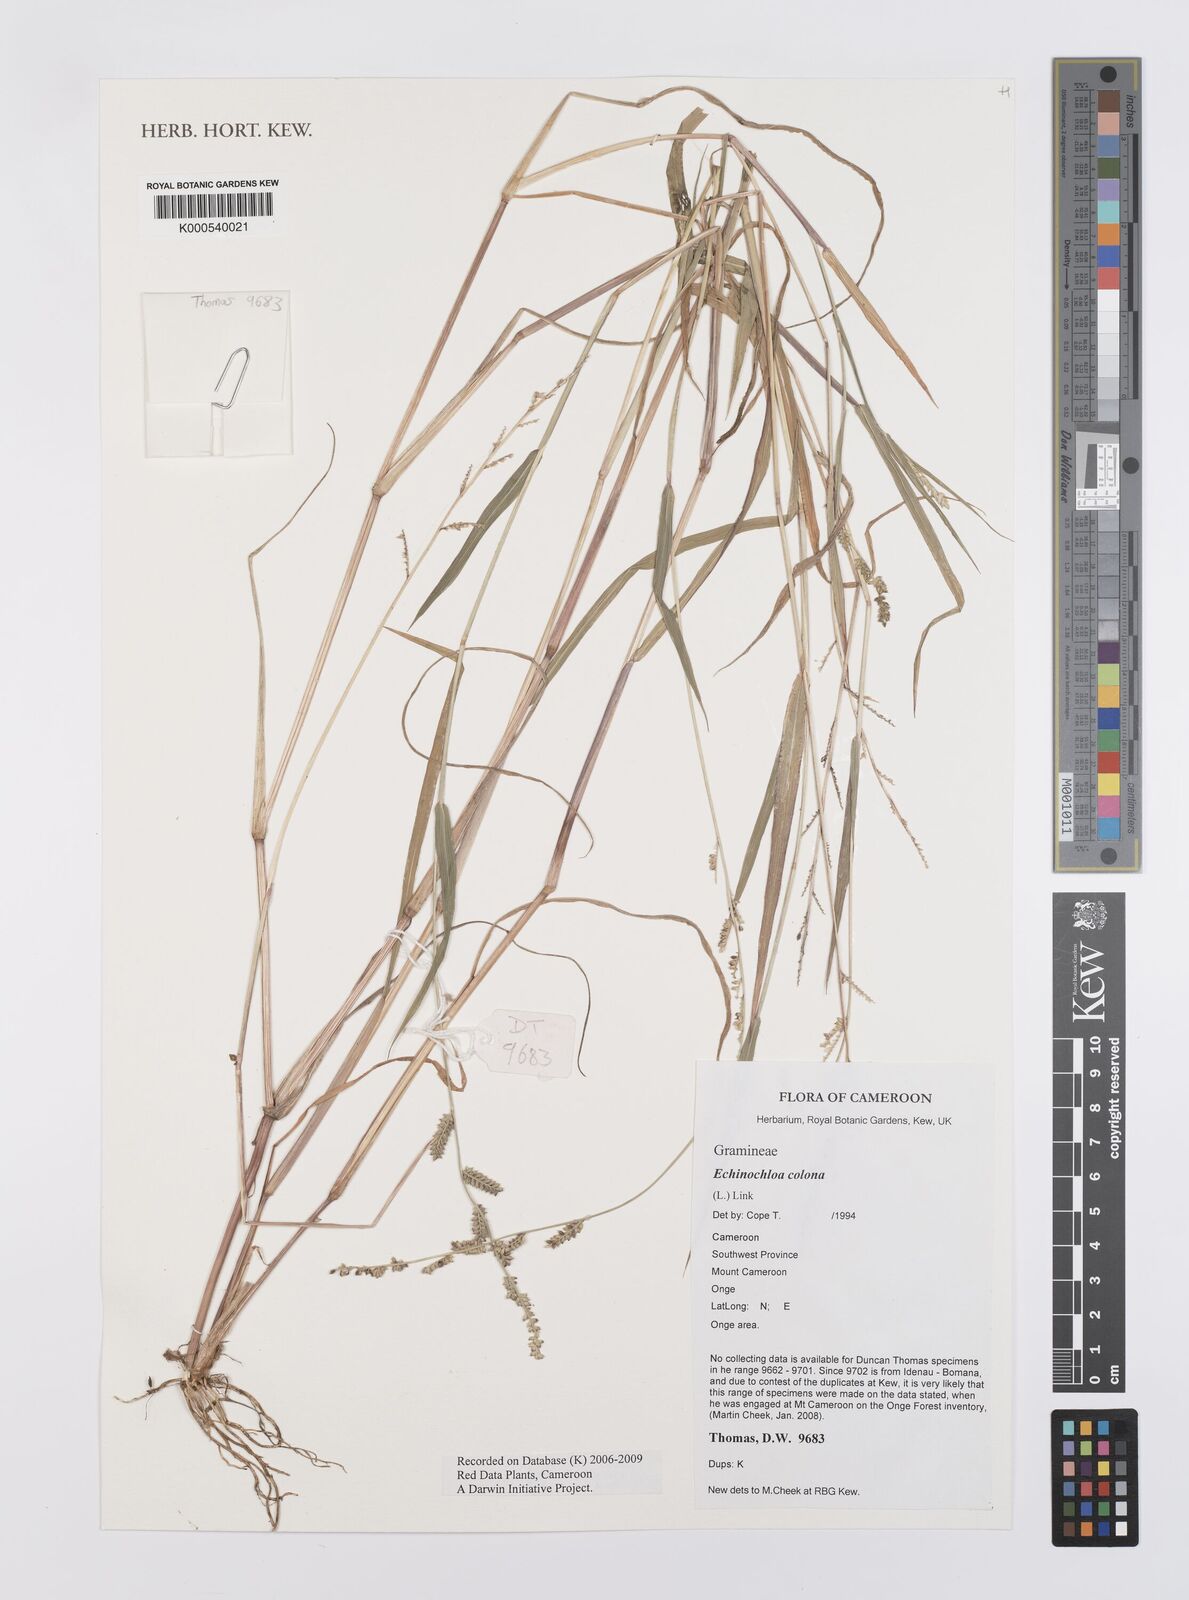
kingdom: Plantae
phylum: Tracheophyta
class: Liliopsida
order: Poales
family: Poaceae
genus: Echinochloa
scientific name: Echinochloa colonum
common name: Jungle rice
